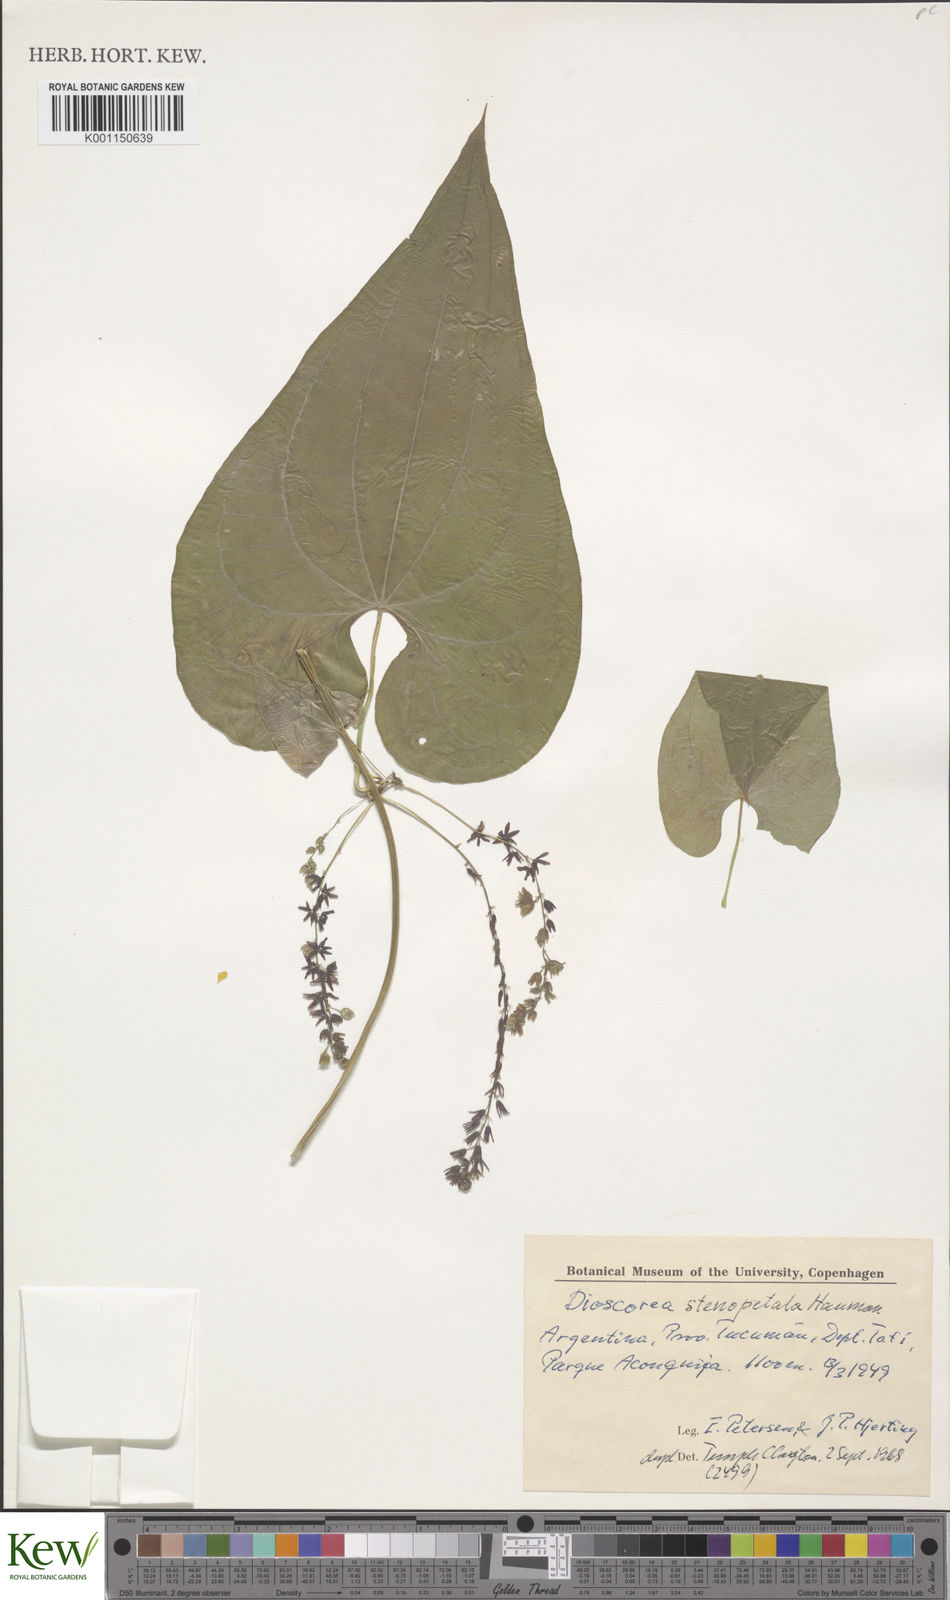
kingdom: Plantae
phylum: Tracheophyta
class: Liliopsida
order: Dioscoreales
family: Dioscoreaceae
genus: Dioscorea
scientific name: Dioscorea stenopetala
